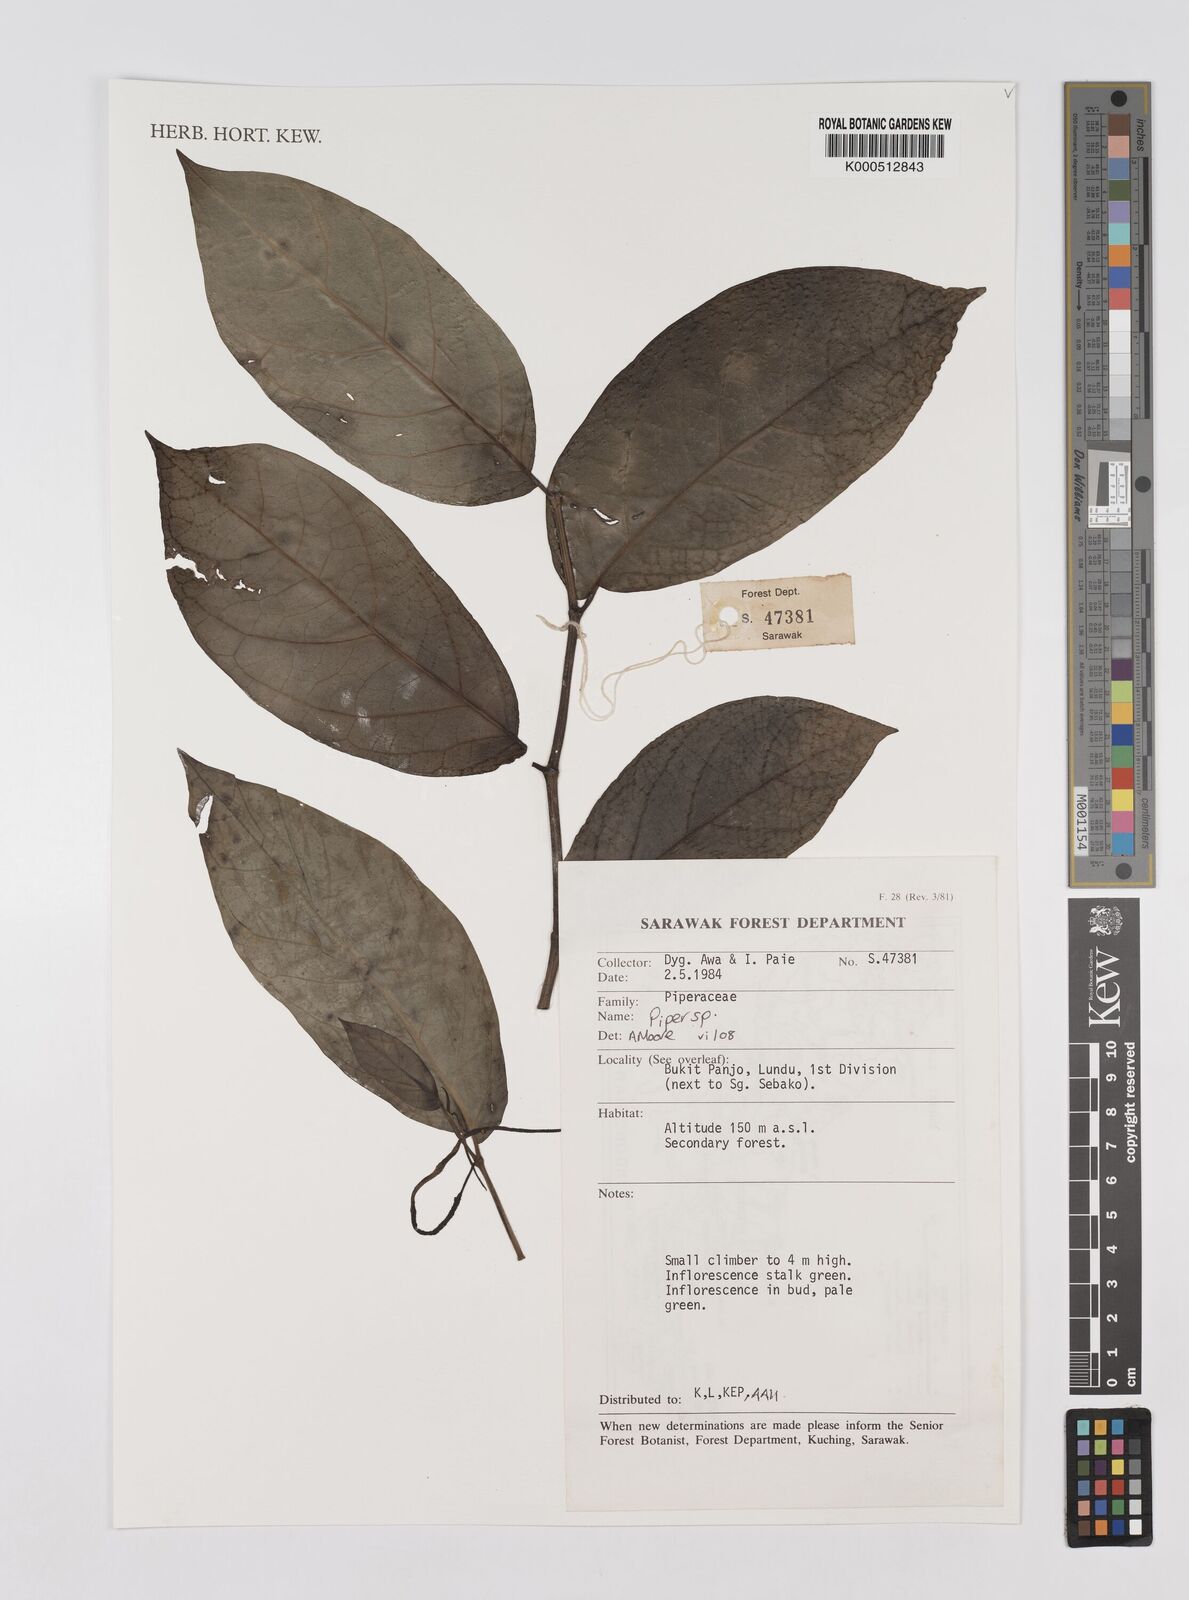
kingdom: Plantae
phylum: Tracheophyta
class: Magnoliopsida
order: Piperales
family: Piperaceae
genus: Piper
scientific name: Piper
